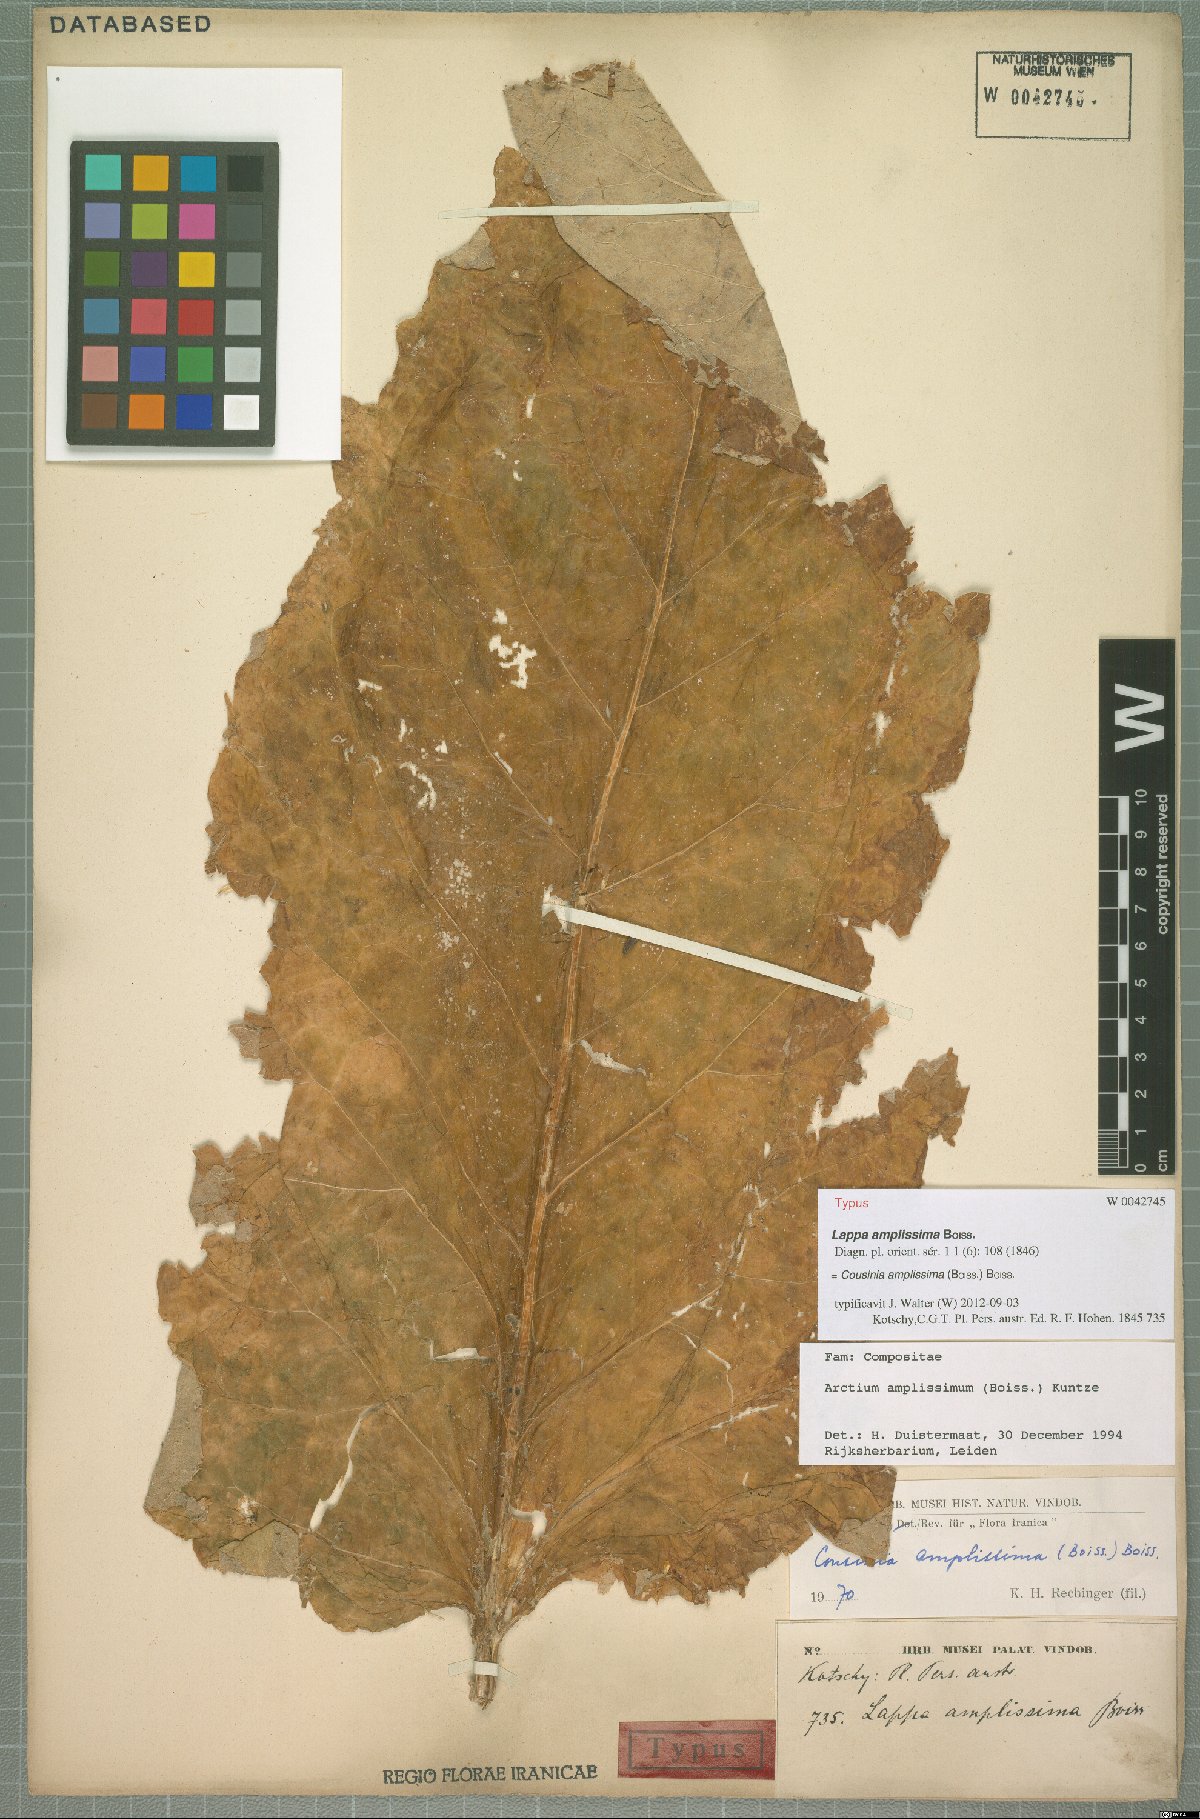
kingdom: Plantae
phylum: Tracheophyta
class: Magnoliopsida
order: Asterales
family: Asteraceae
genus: Arctium
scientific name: Arctium amplissimum
